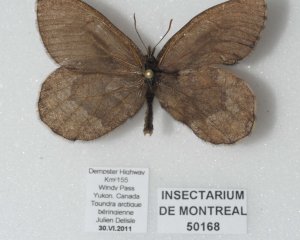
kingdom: Animalia
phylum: Arthropoda
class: Insecta
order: Lepidoptera
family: Nymphalidae
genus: Oeneis
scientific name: Oeneis bore
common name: White-veined Arctic
